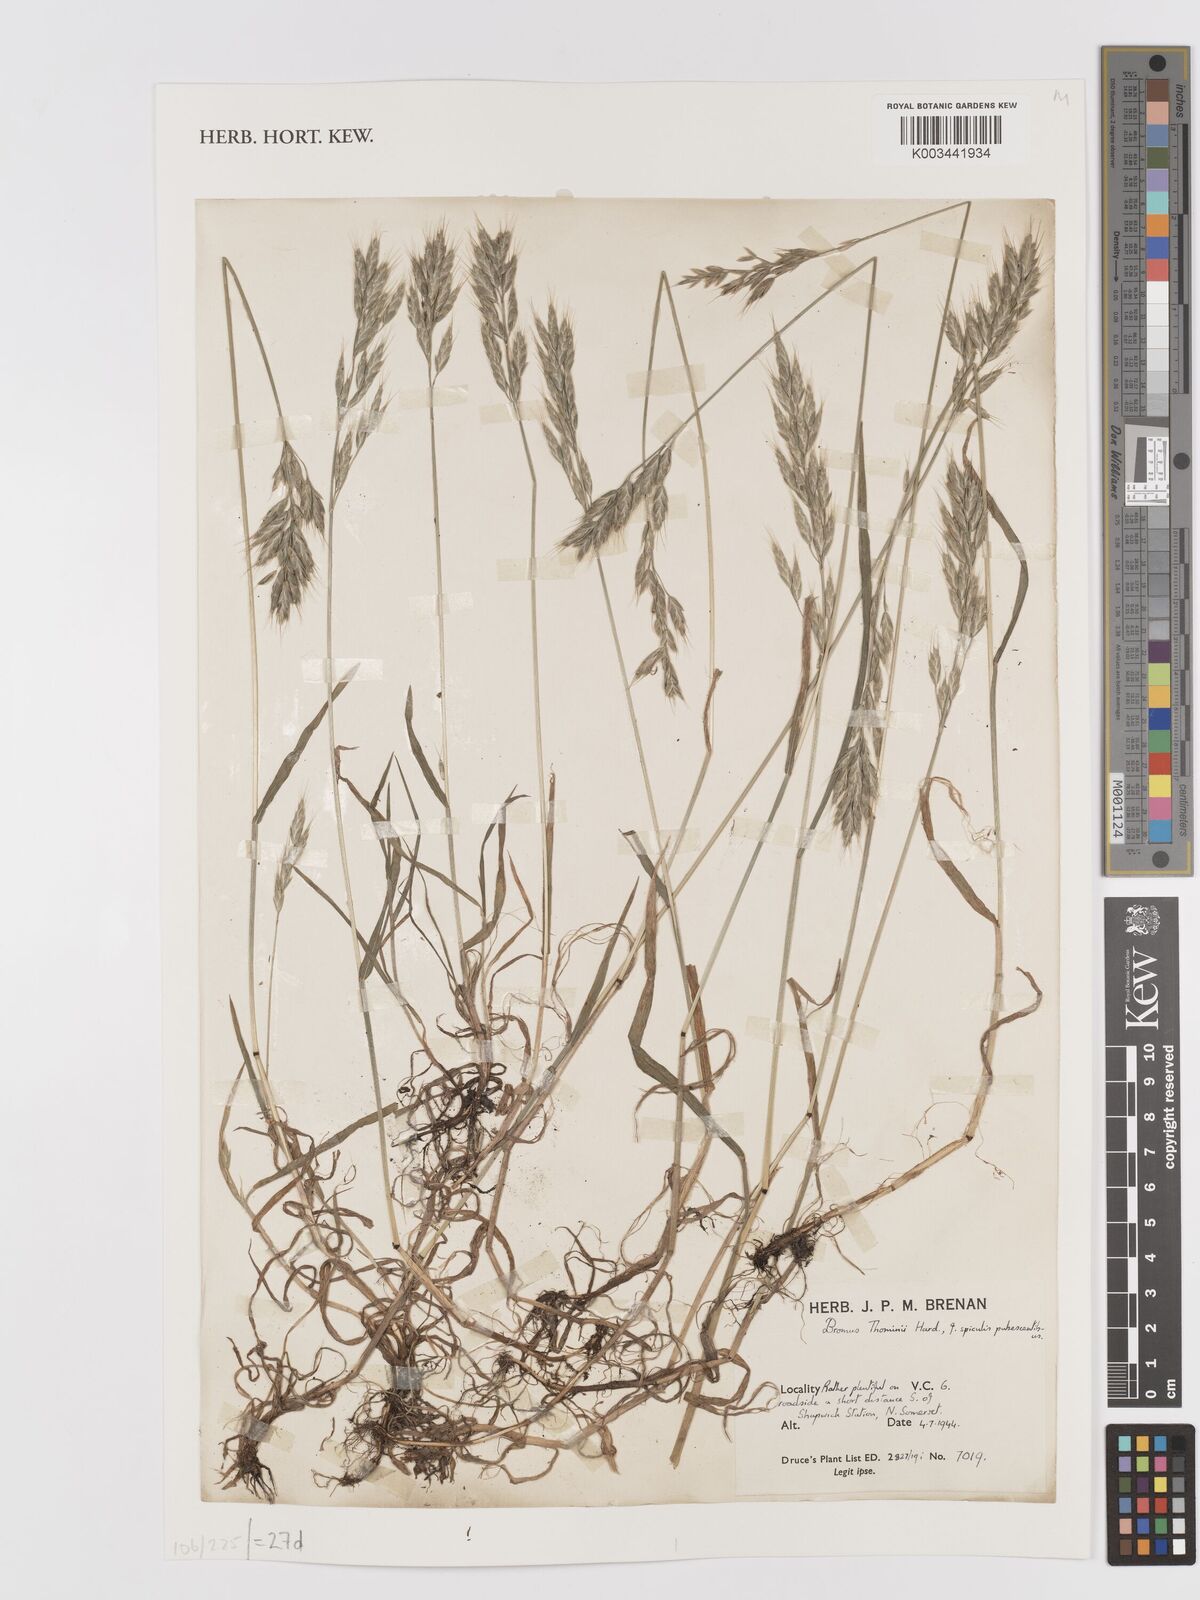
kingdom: Plantae
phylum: Tracheophyta
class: Liliopsida
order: Poales
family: Poaceae
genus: Bromus
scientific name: Bromus hordeaceus
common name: Soft brome
